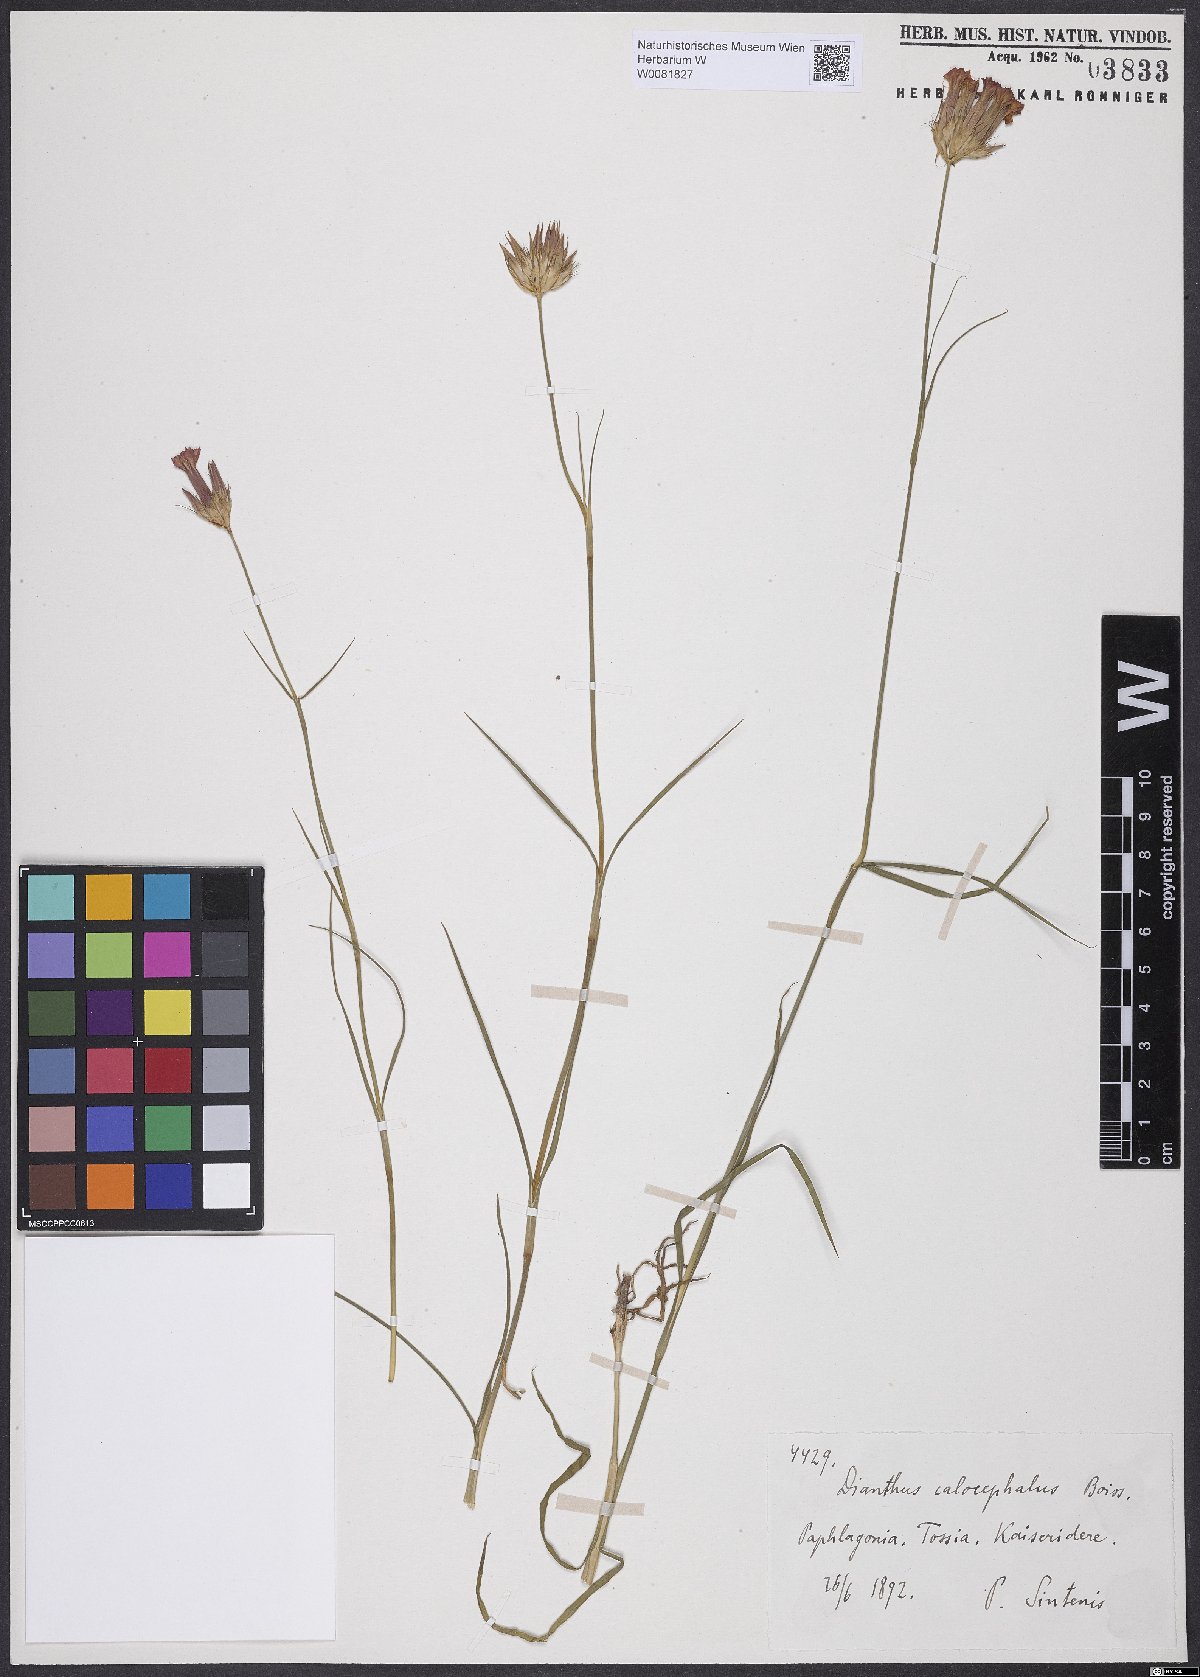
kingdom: Plantae
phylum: Tracheophyta
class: Magnoliopsida
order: Caryophyllales
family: Caryophyllaceae
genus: Dianthus
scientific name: Dianthus cruentus
